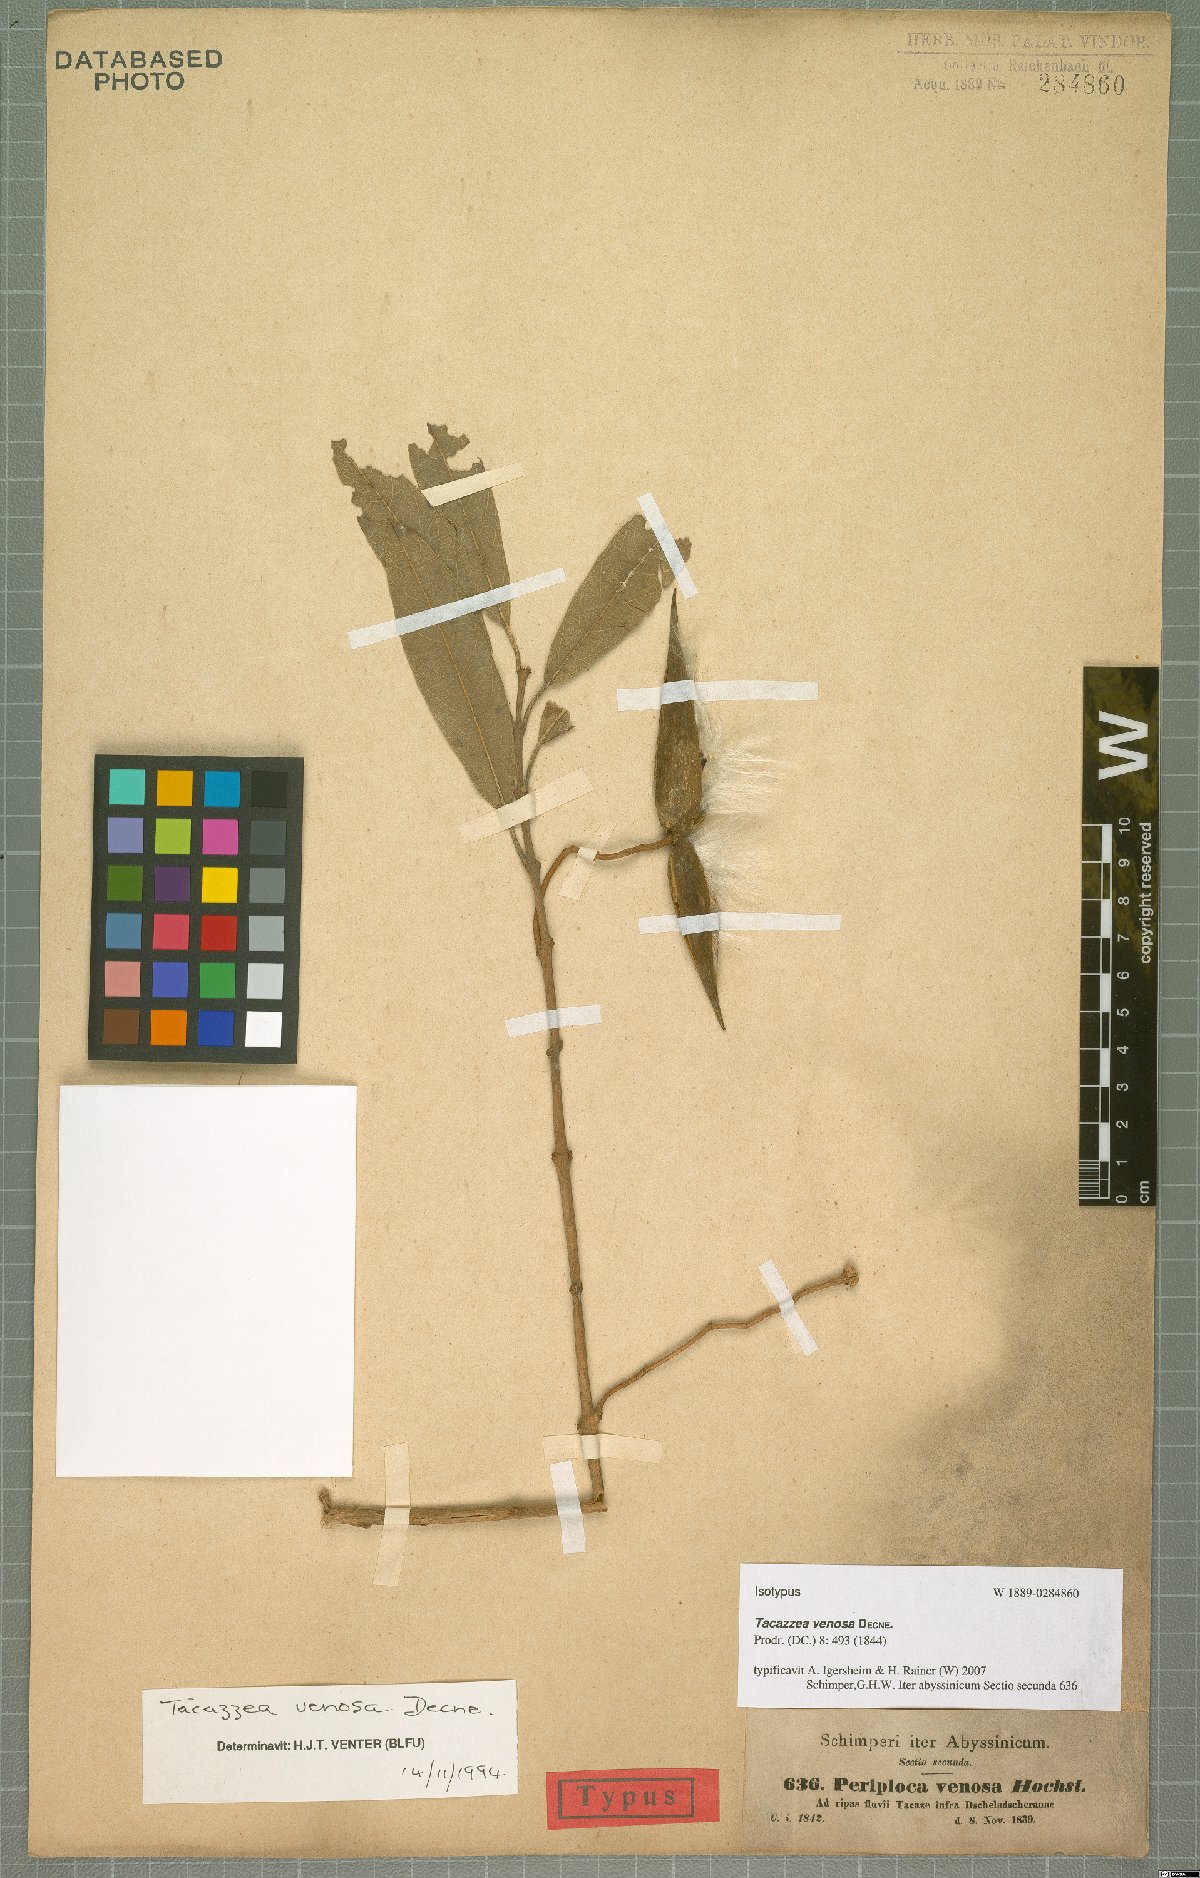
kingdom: Plantae
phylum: Tracheophyta
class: Magnoliopsida
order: Gentianales
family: Apocynaceae
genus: Tacazzea
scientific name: Tacazzea venosa
